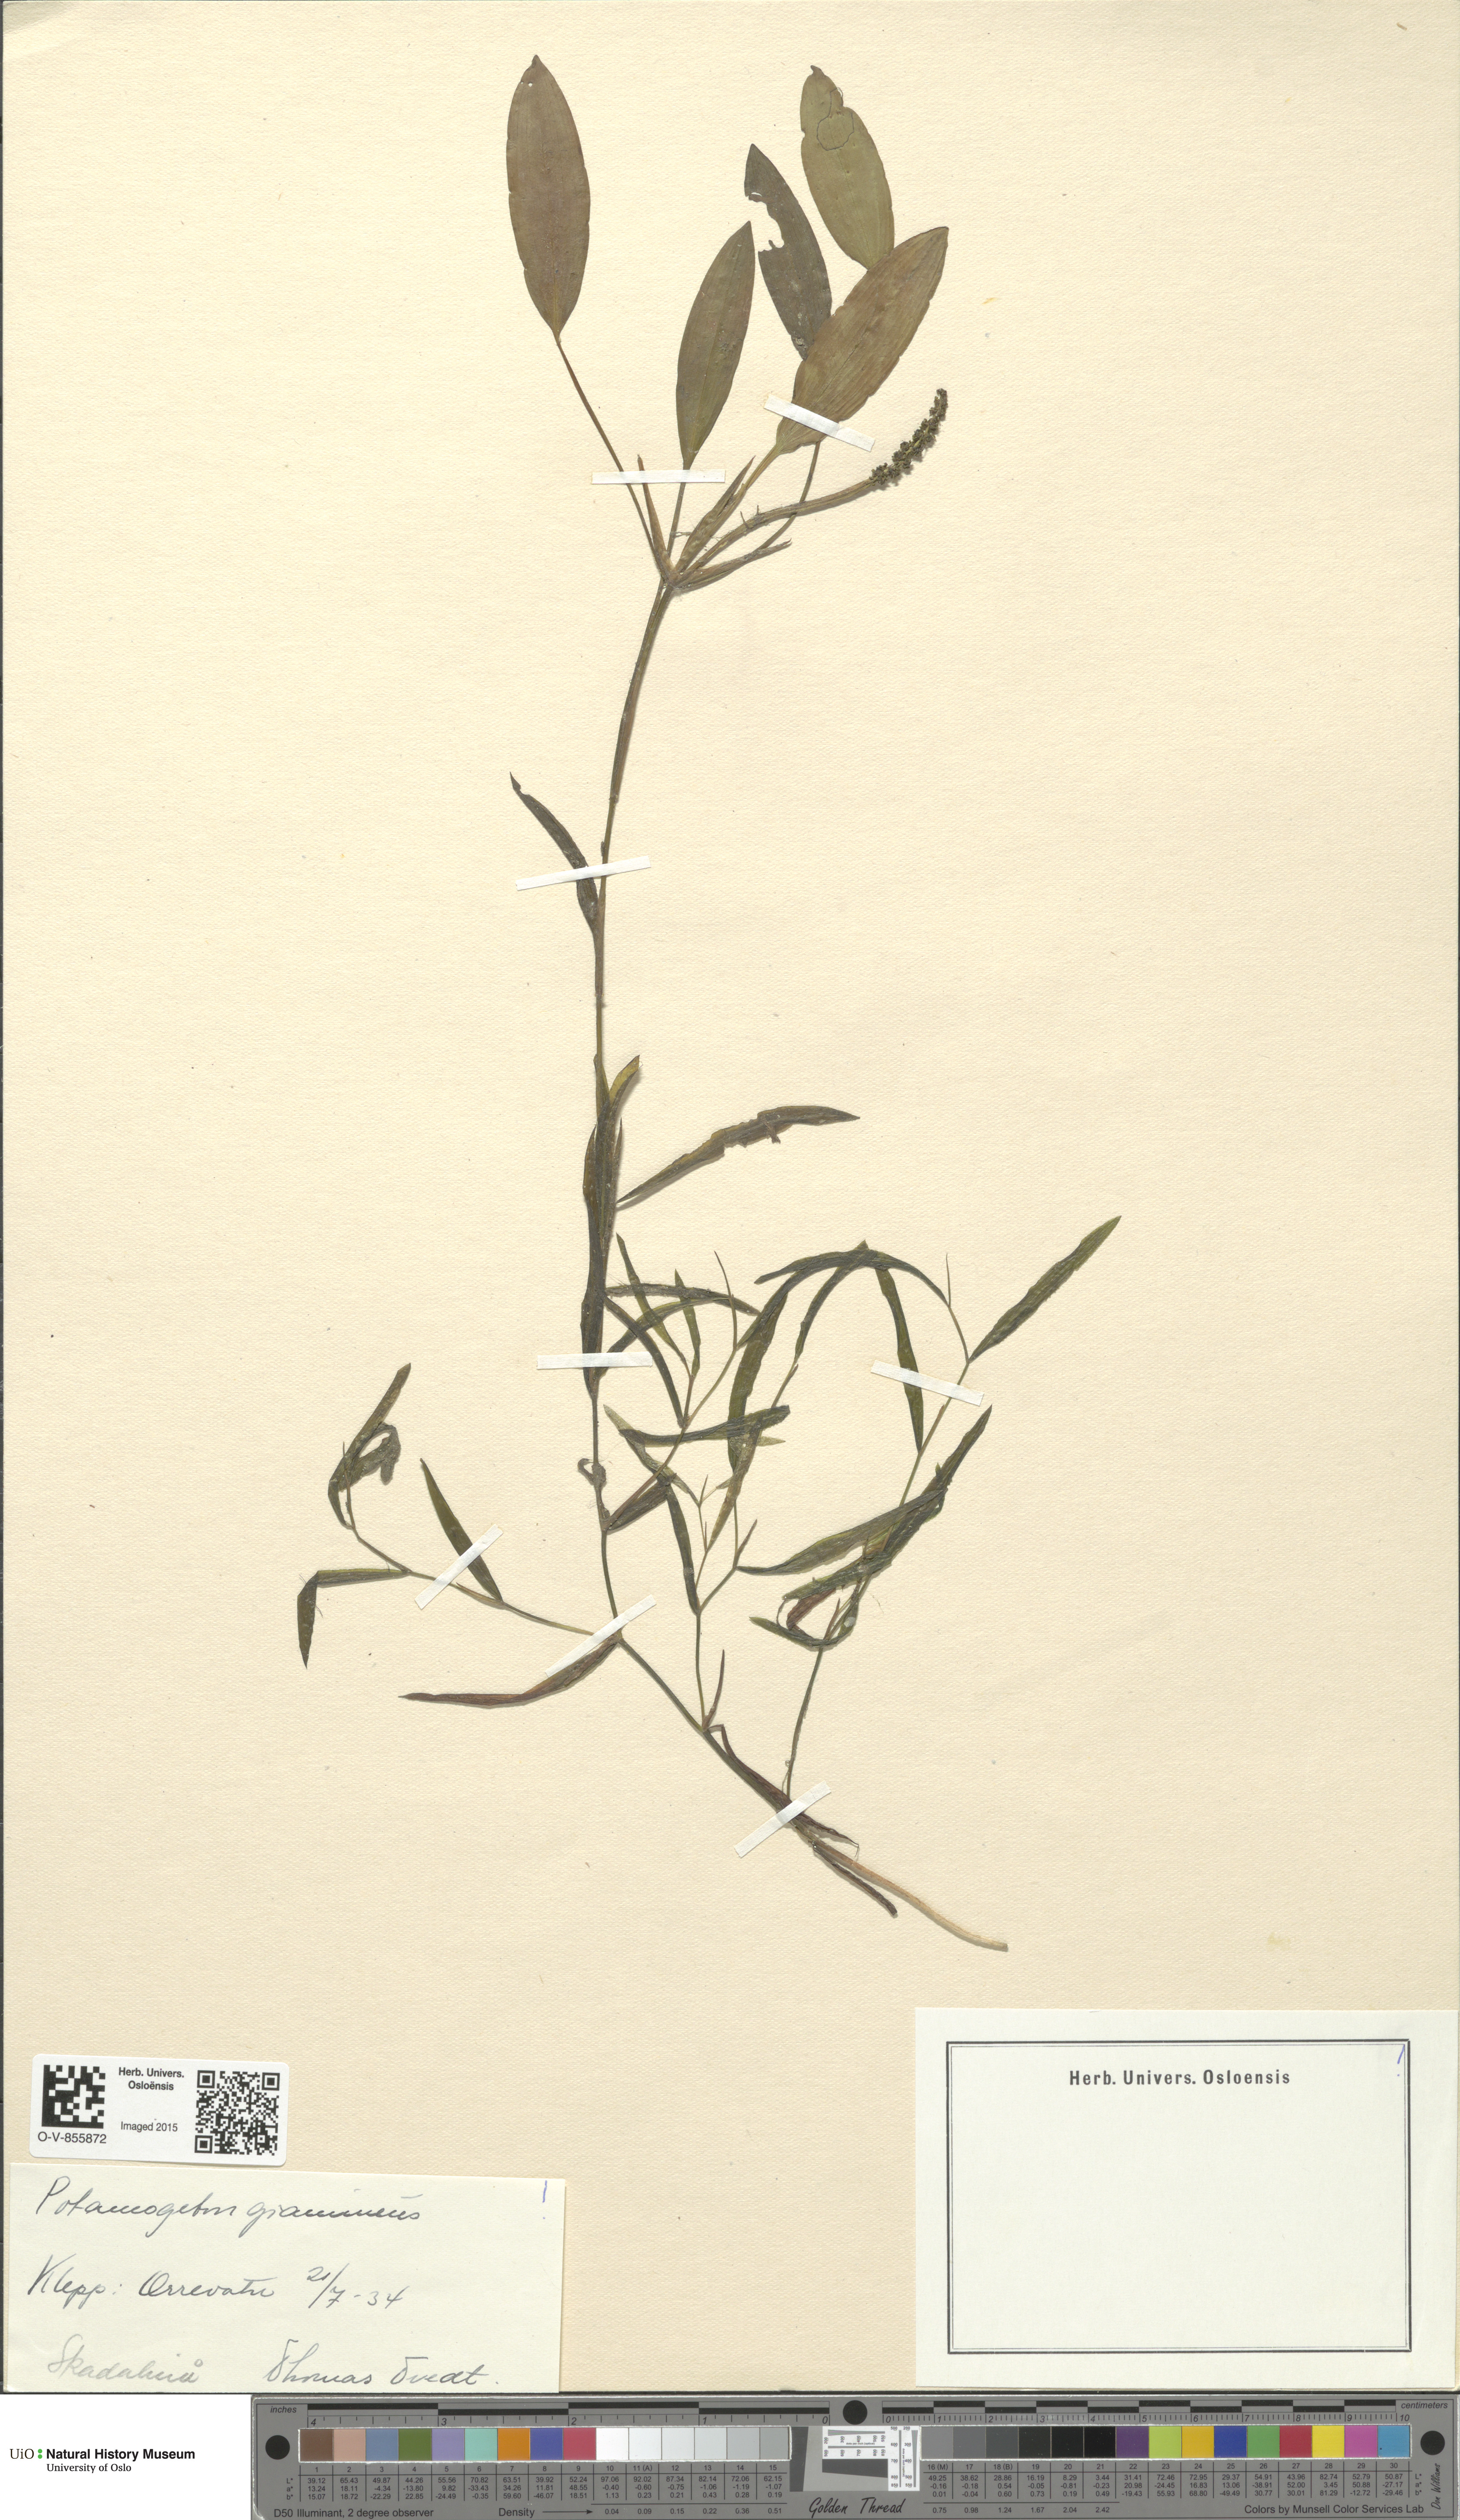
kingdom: Plantae
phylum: Tracheophyta
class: Liliopsida
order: Alismatales
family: Potamogetonaceae
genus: Potamogeton
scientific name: Potamogeton gramineus
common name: Various-leaved pondweed
